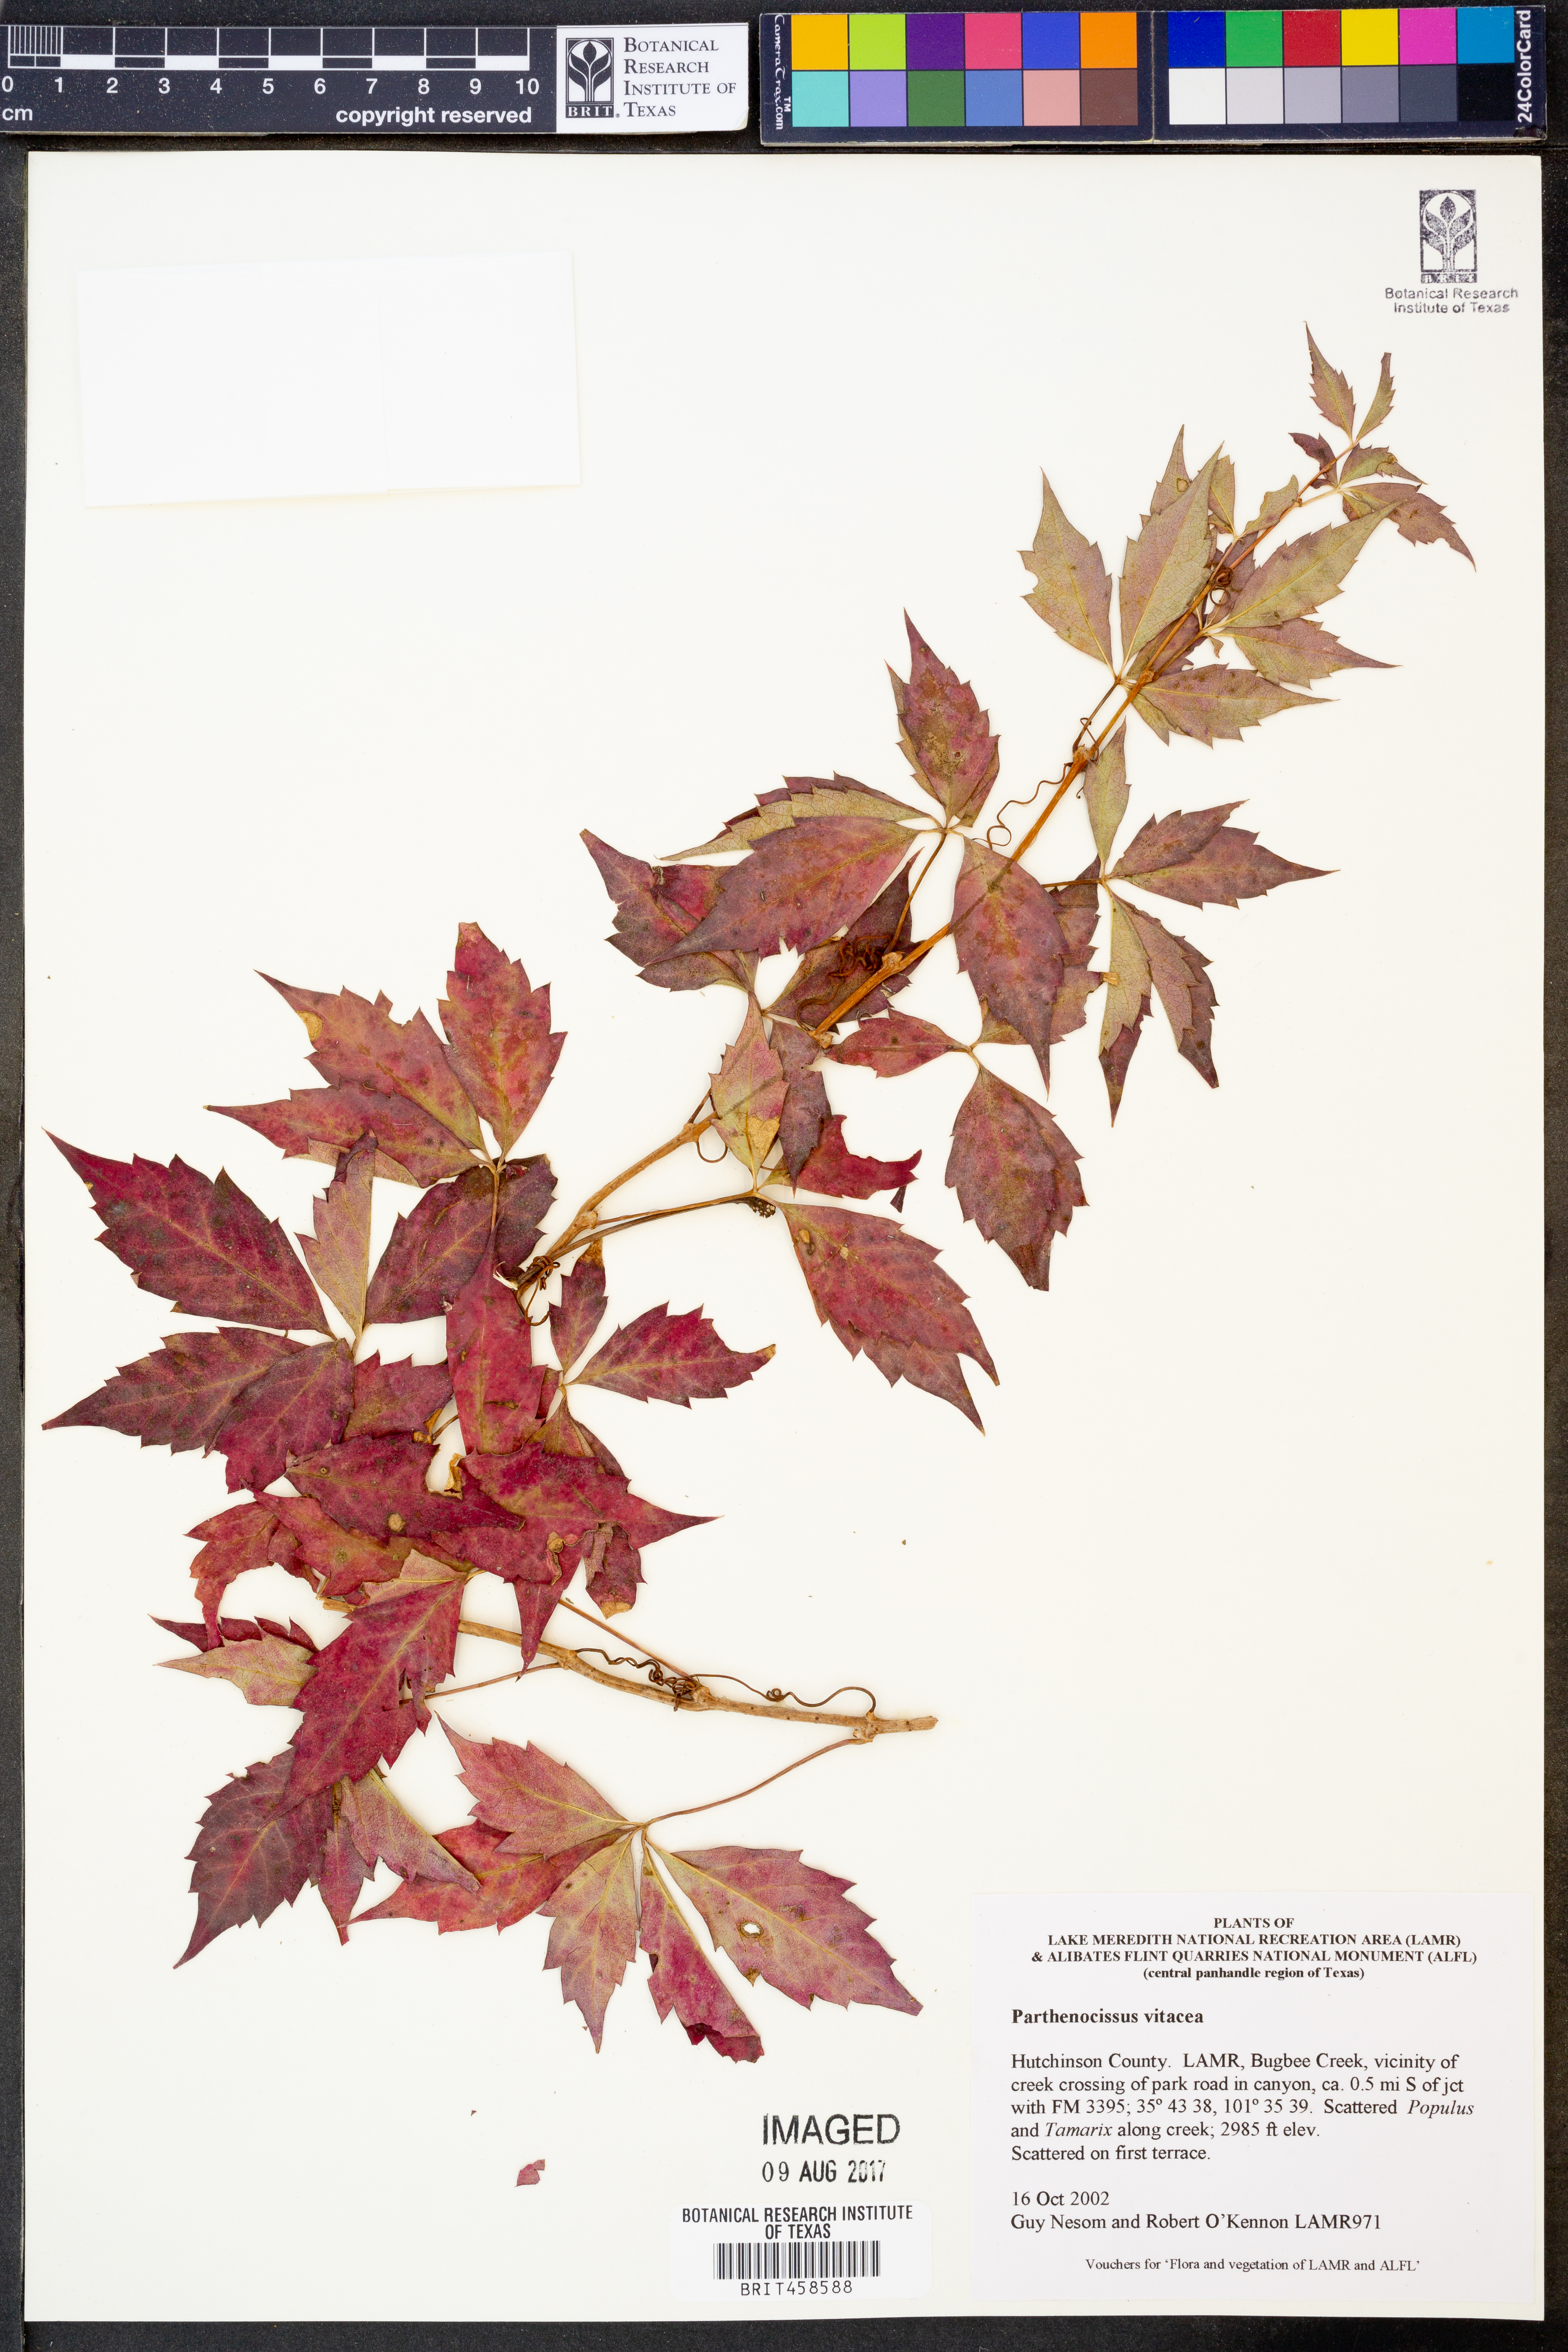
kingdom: Plantae
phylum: Tracheophyta
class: Magnoliopsida
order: Vitales
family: Vitaceae
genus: Parthenocissus
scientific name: Parthenocissus inserta
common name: False virginia-creeper
